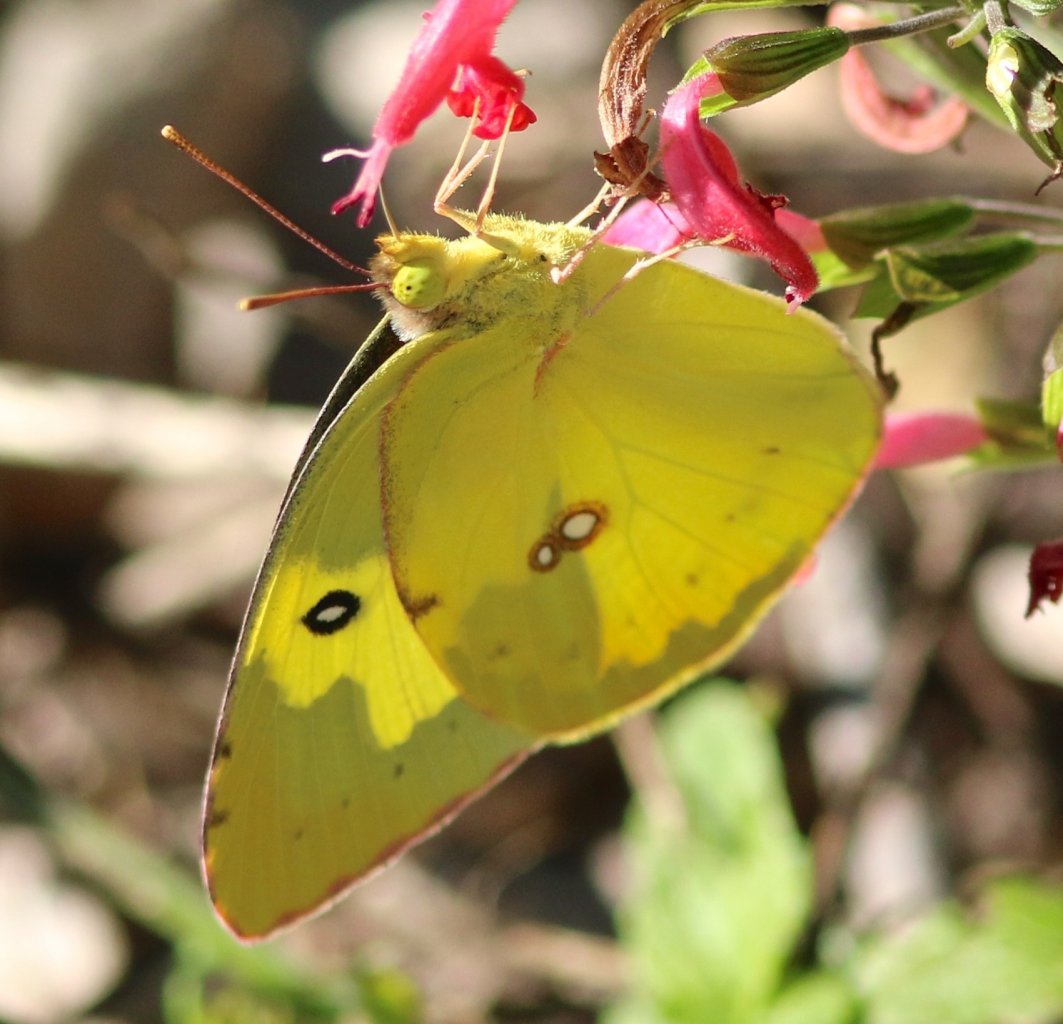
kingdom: Animalia
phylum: Arthropoda
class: Insecta
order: Lepidoptera
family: Pieridae
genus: Zerene
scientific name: Zerene cesonia
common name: Southern Dogface
